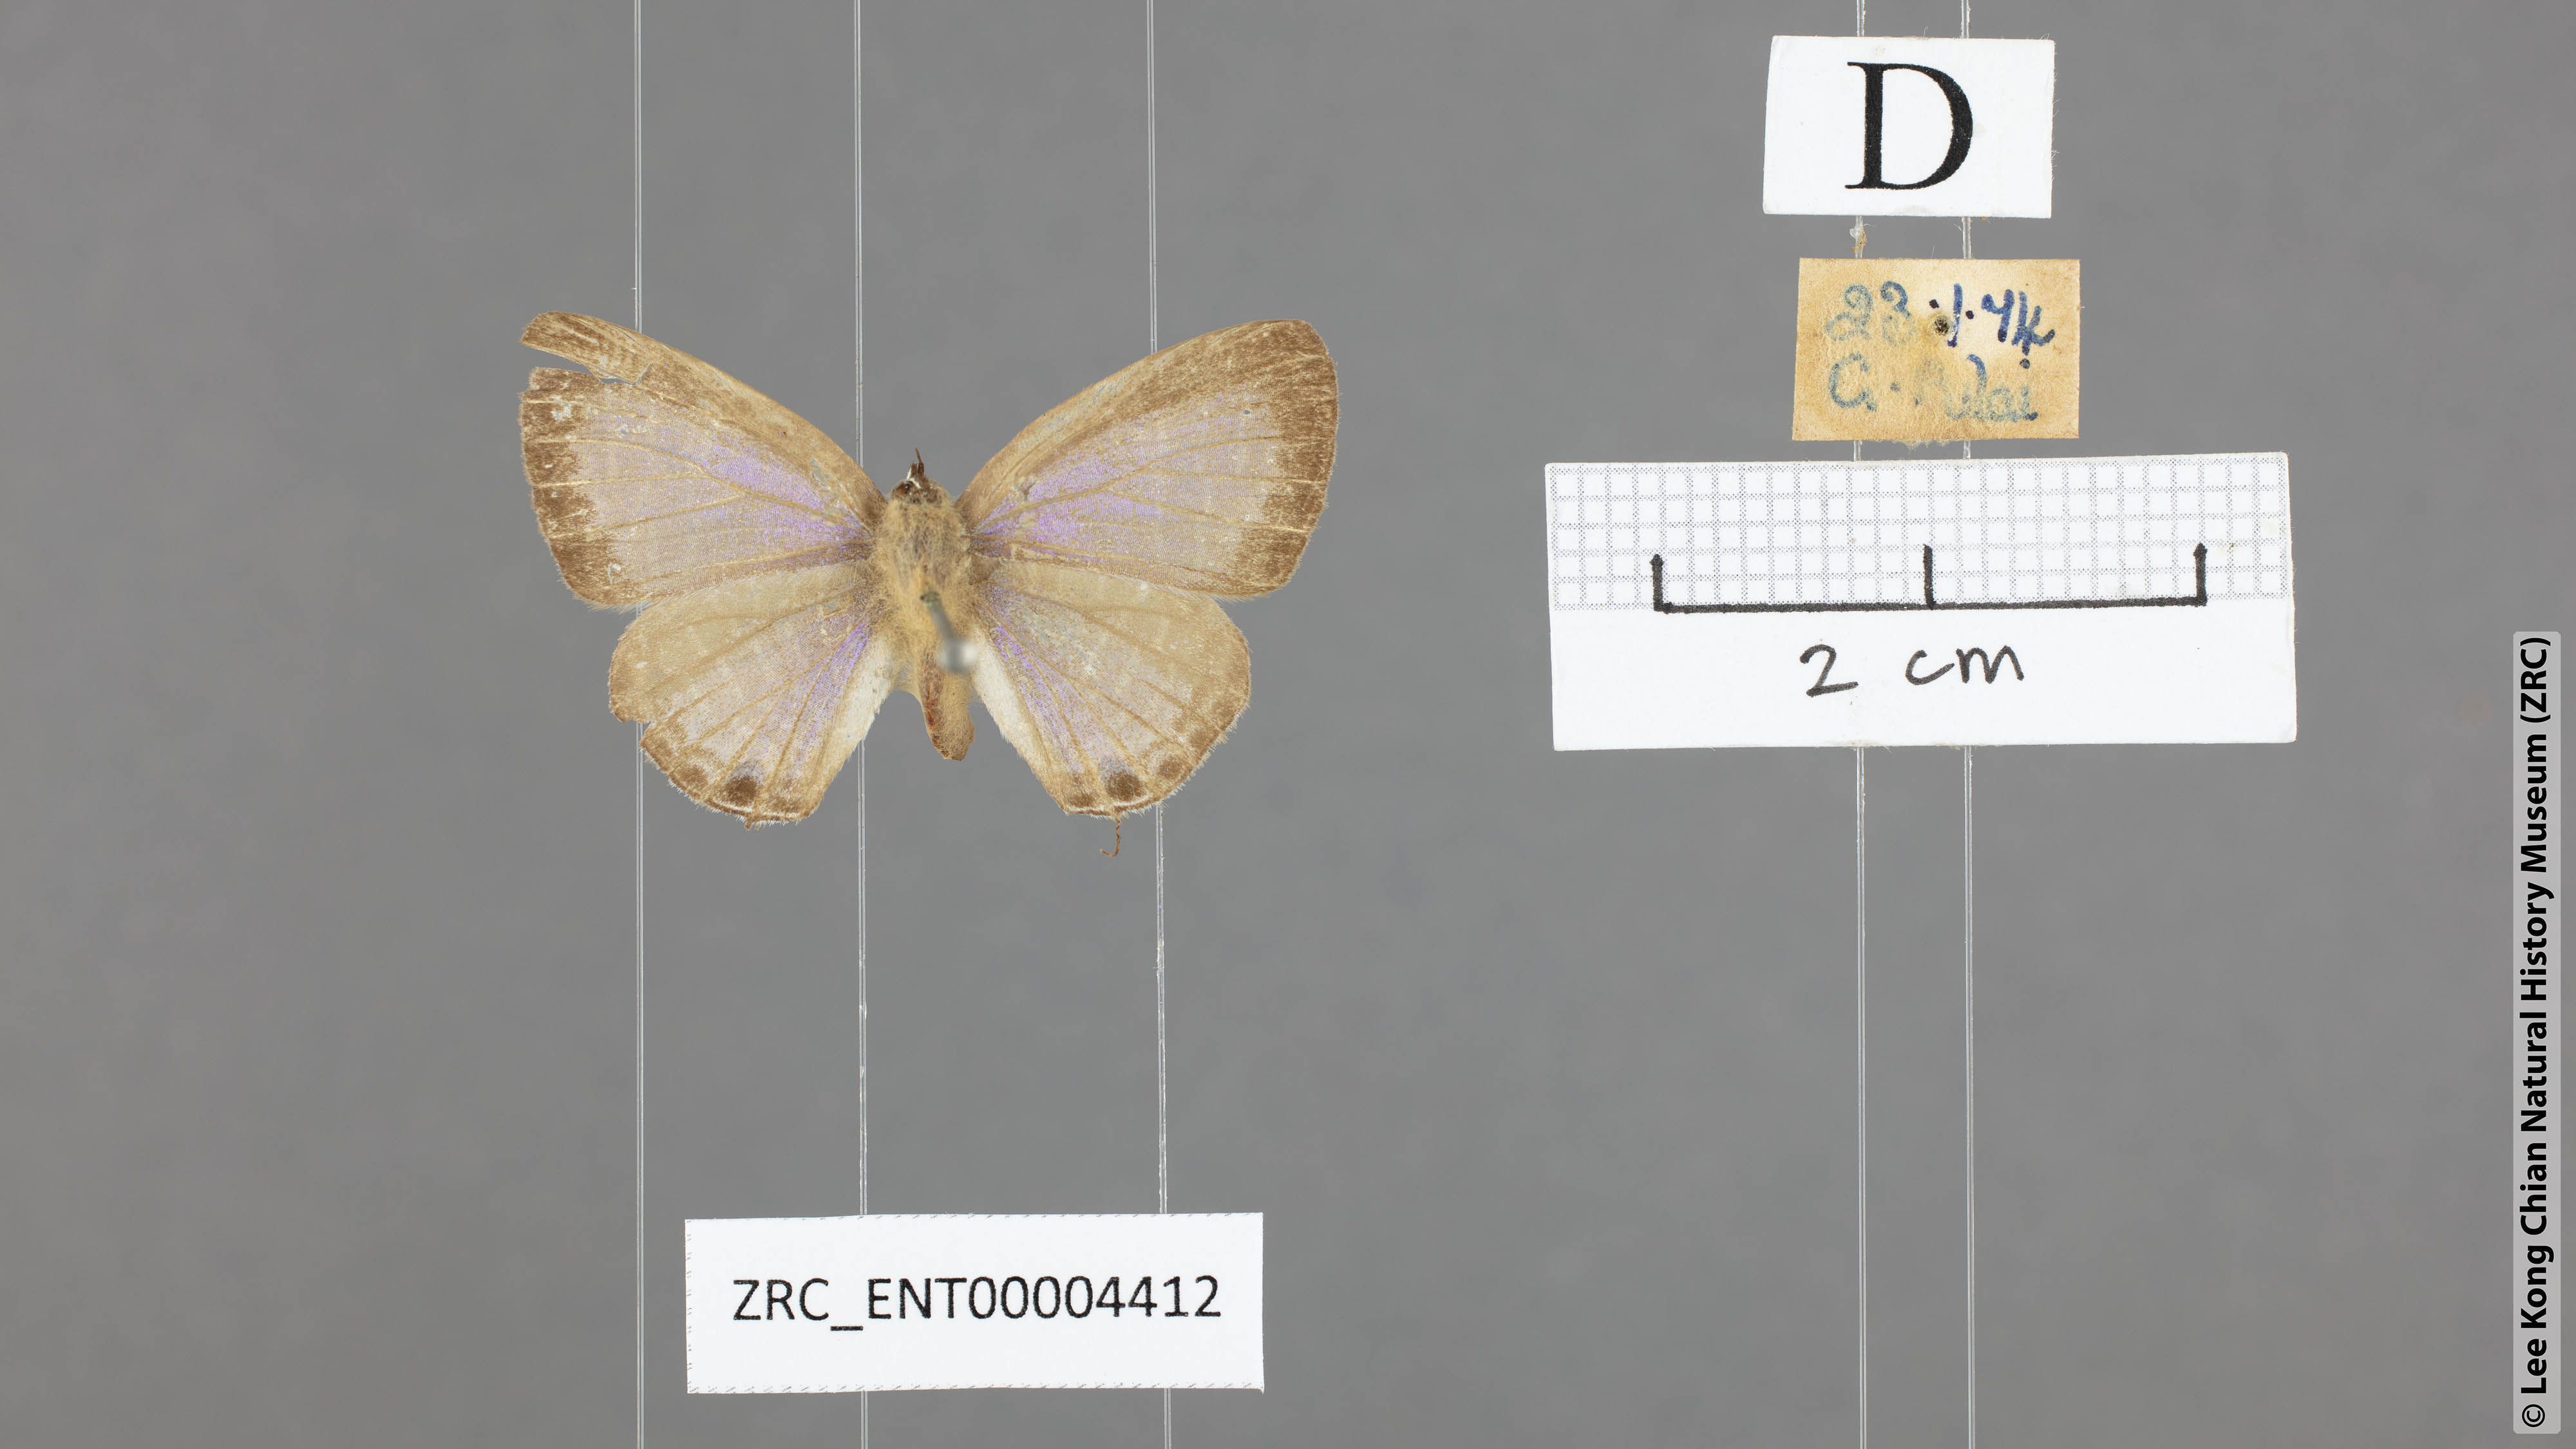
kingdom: Animalia
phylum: Arthropoda
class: Insecta
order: Lepidoptera
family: Lycaenidae
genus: Nacaduba
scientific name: Nacaduba sanaya
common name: Jewel fourline blue
